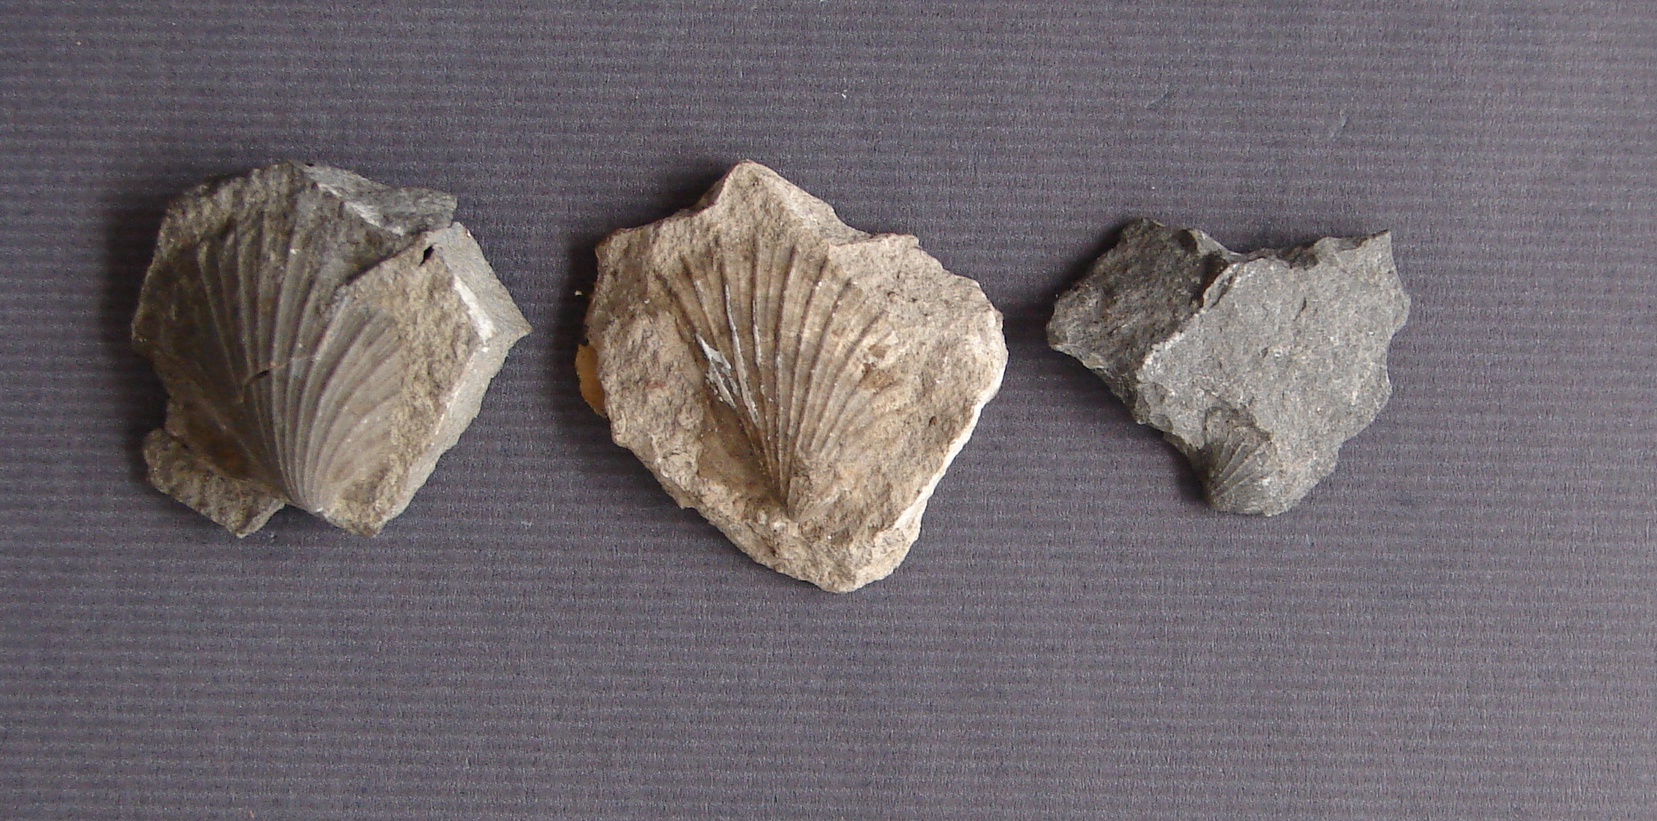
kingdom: Animalia
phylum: Mollusca
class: Bivalvia
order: Ostreida
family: Pteriidae
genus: Pteria
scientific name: Pteria Avicula sinemuriensis
